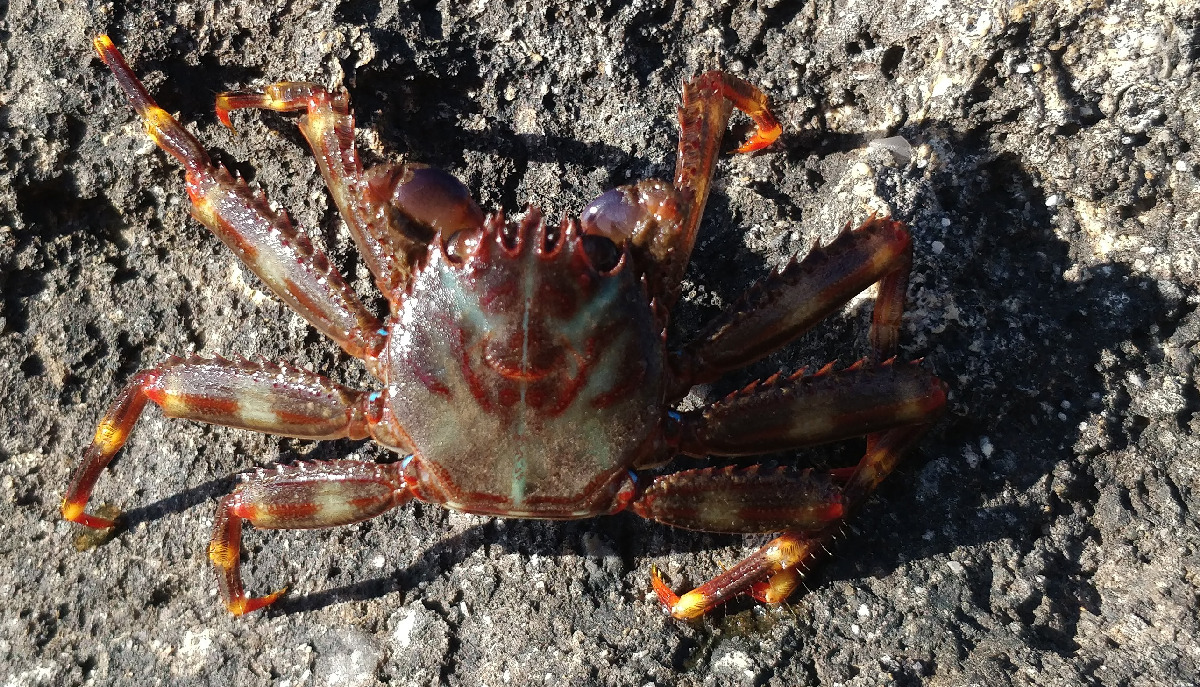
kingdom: Animalia
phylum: Arthropoda
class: Malacostraca
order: Decapoda
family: Percnidae
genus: Percnon
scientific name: Percnon gibbesi
